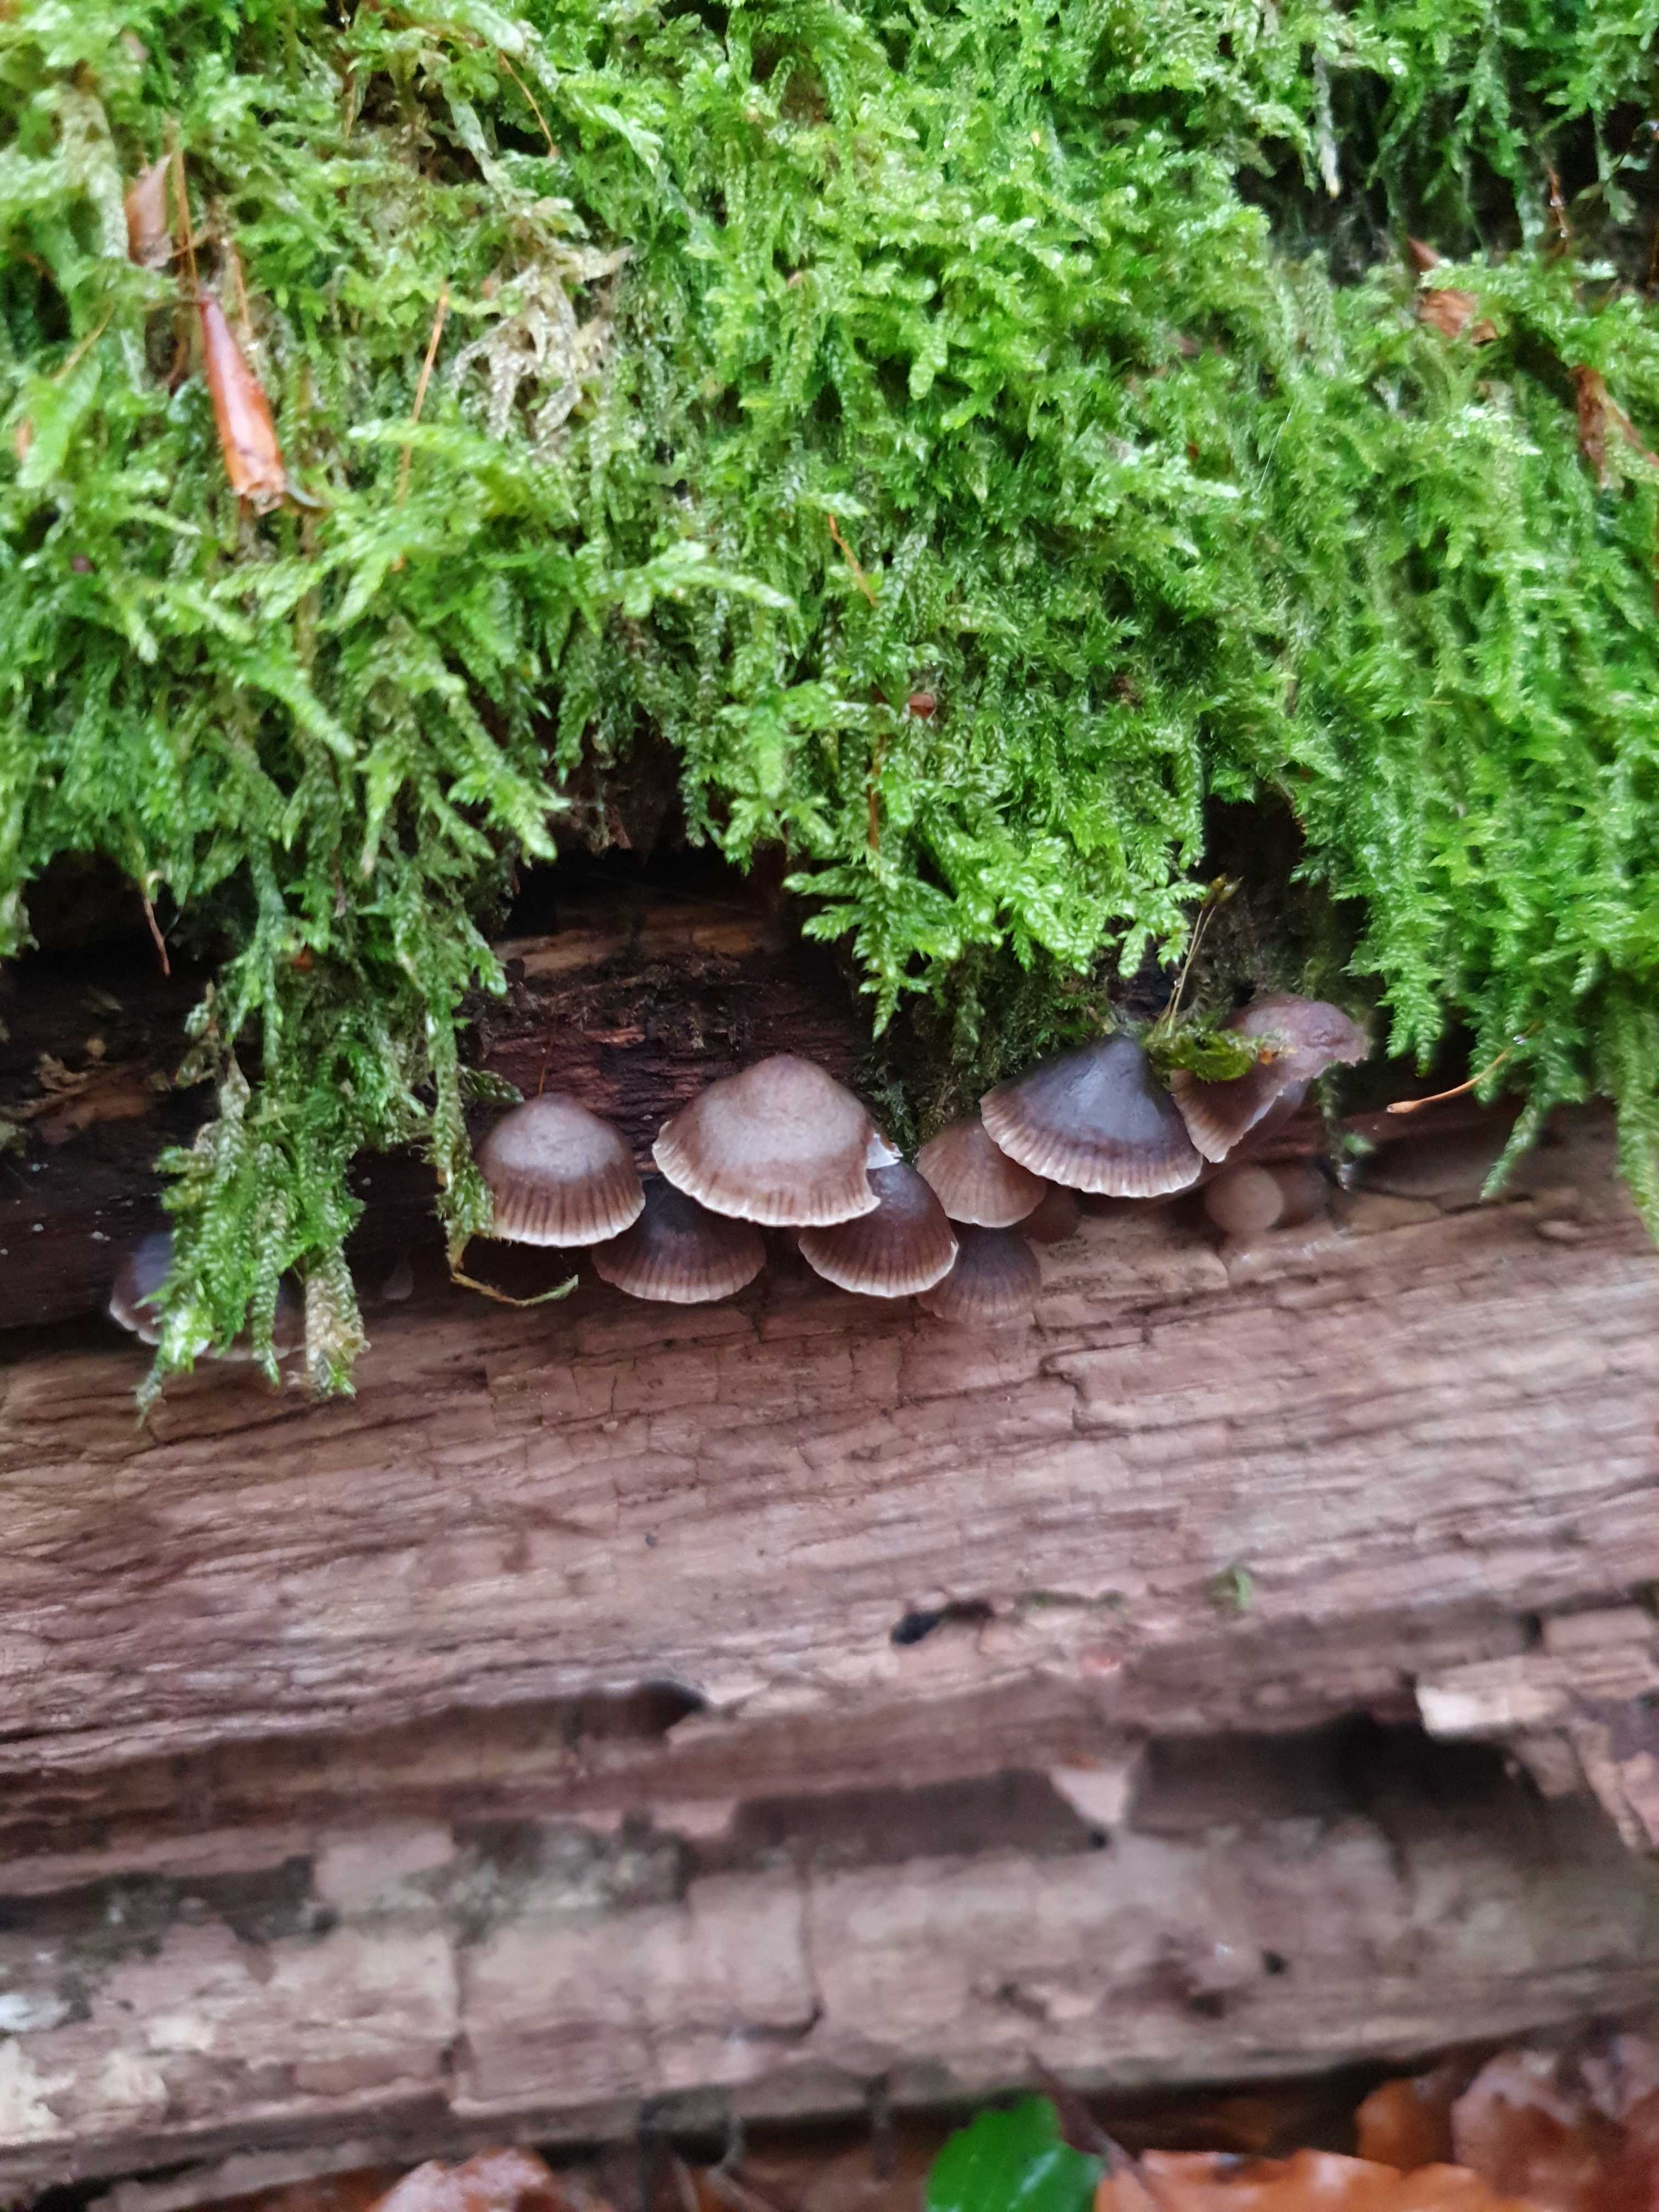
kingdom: Fungi
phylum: Basidiomycota
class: Agaricomycetes
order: Agaricales
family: Mycenaceae
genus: Mycena
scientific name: Mycena maculata
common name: rødplettet huesvamp
